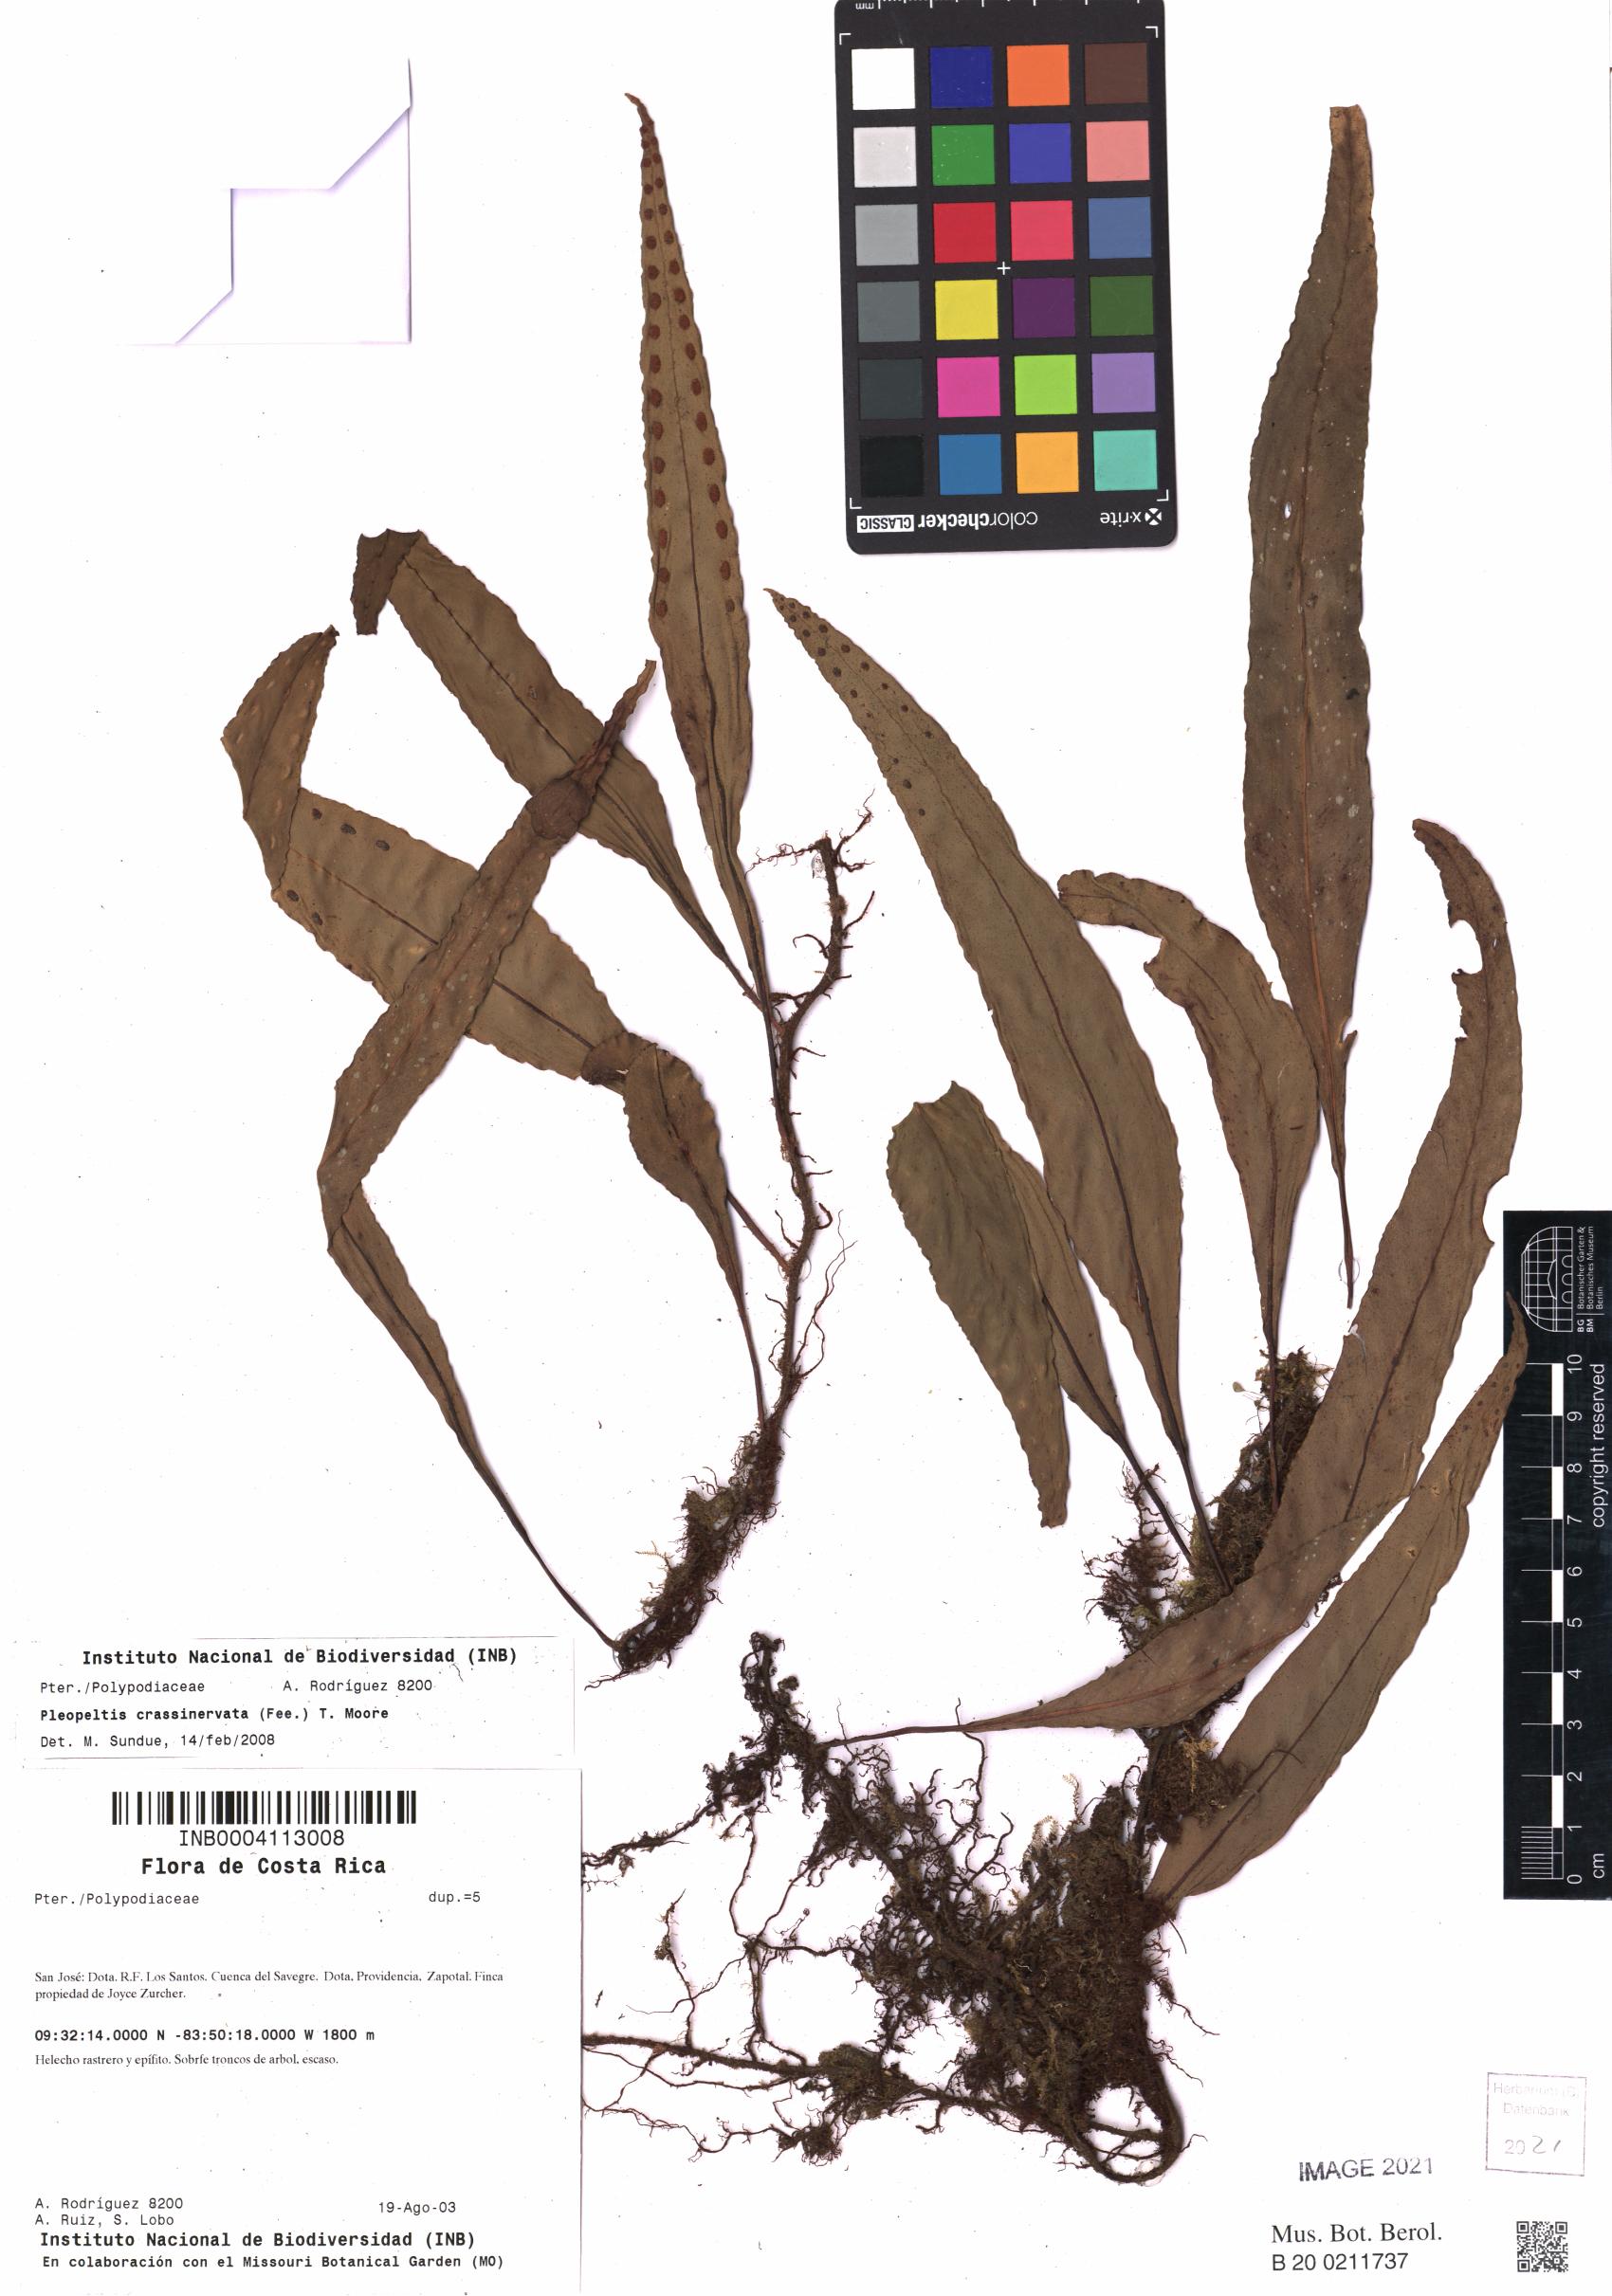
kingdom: Plantae
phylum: Tracheophyta
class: Polypodiopsida
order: Polypodiales
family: Polypodiaceae
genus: Pleopeltis
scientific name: Pleopeltis crassinervata
